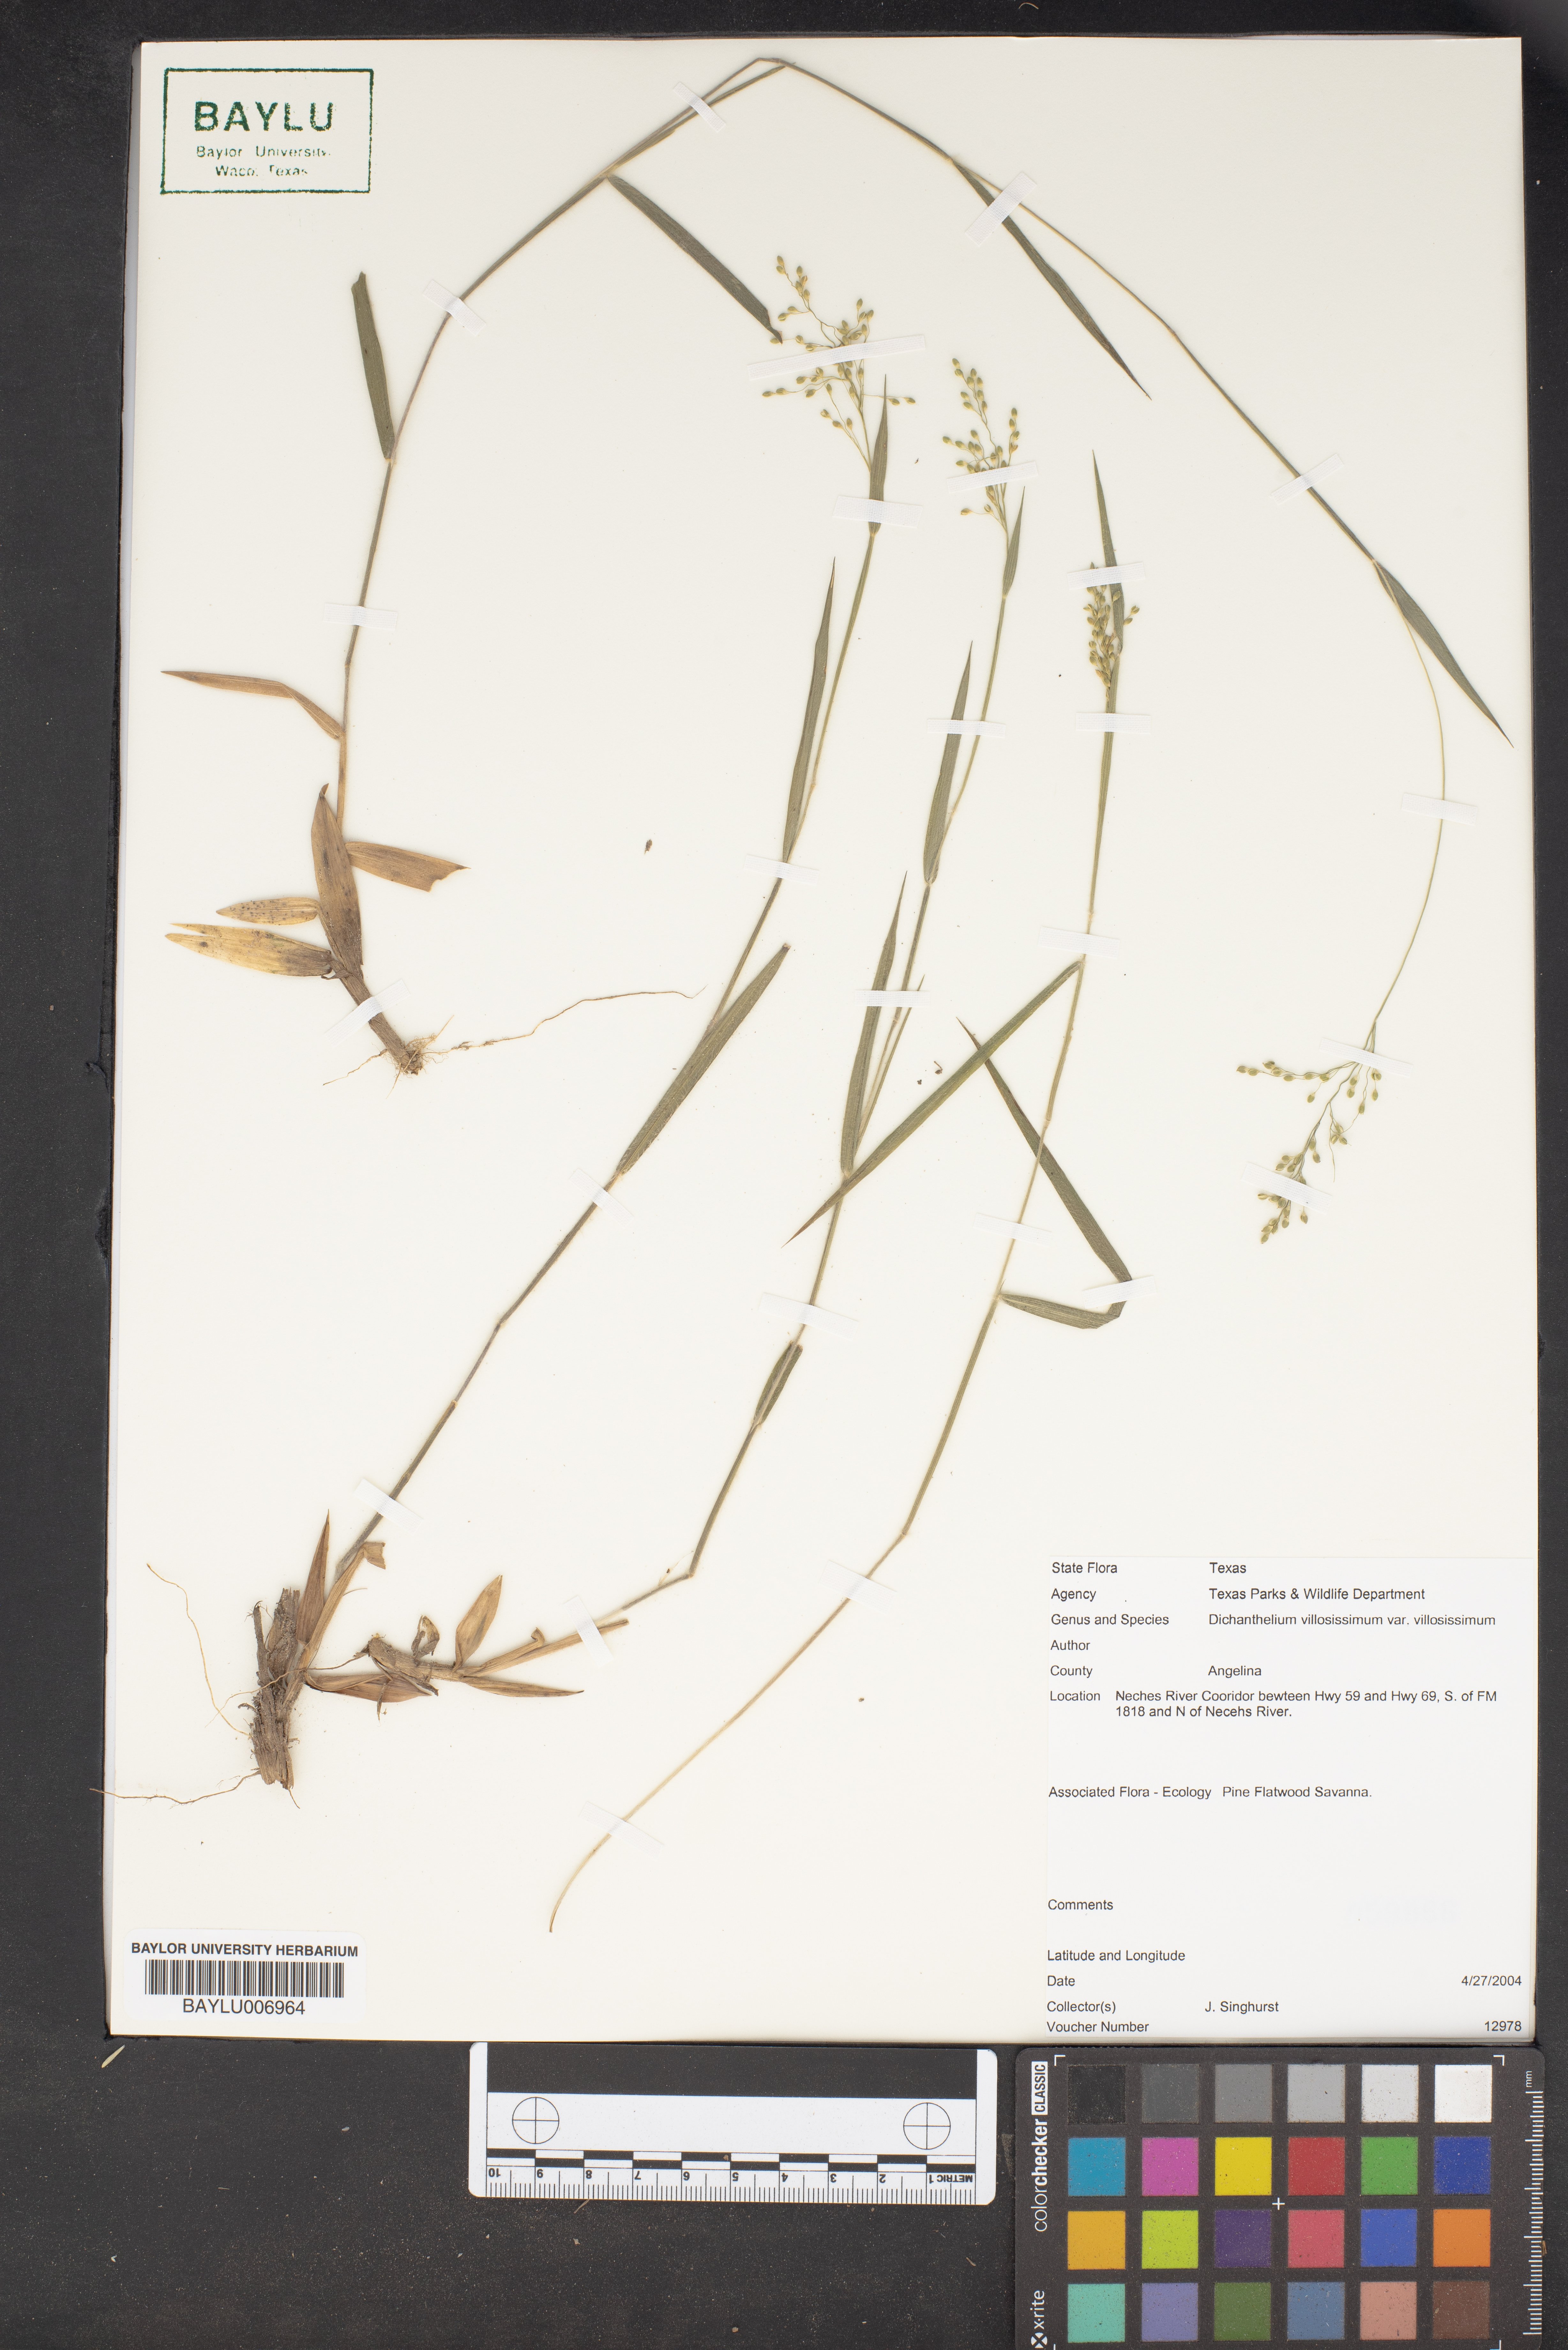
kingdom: Plantae
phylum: Tracheophyta
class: Liliopsida
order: Poales
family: Poaceae
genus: Dichanthelium
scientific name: Dichanthelium acuminatum
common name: Hairy panic grass
